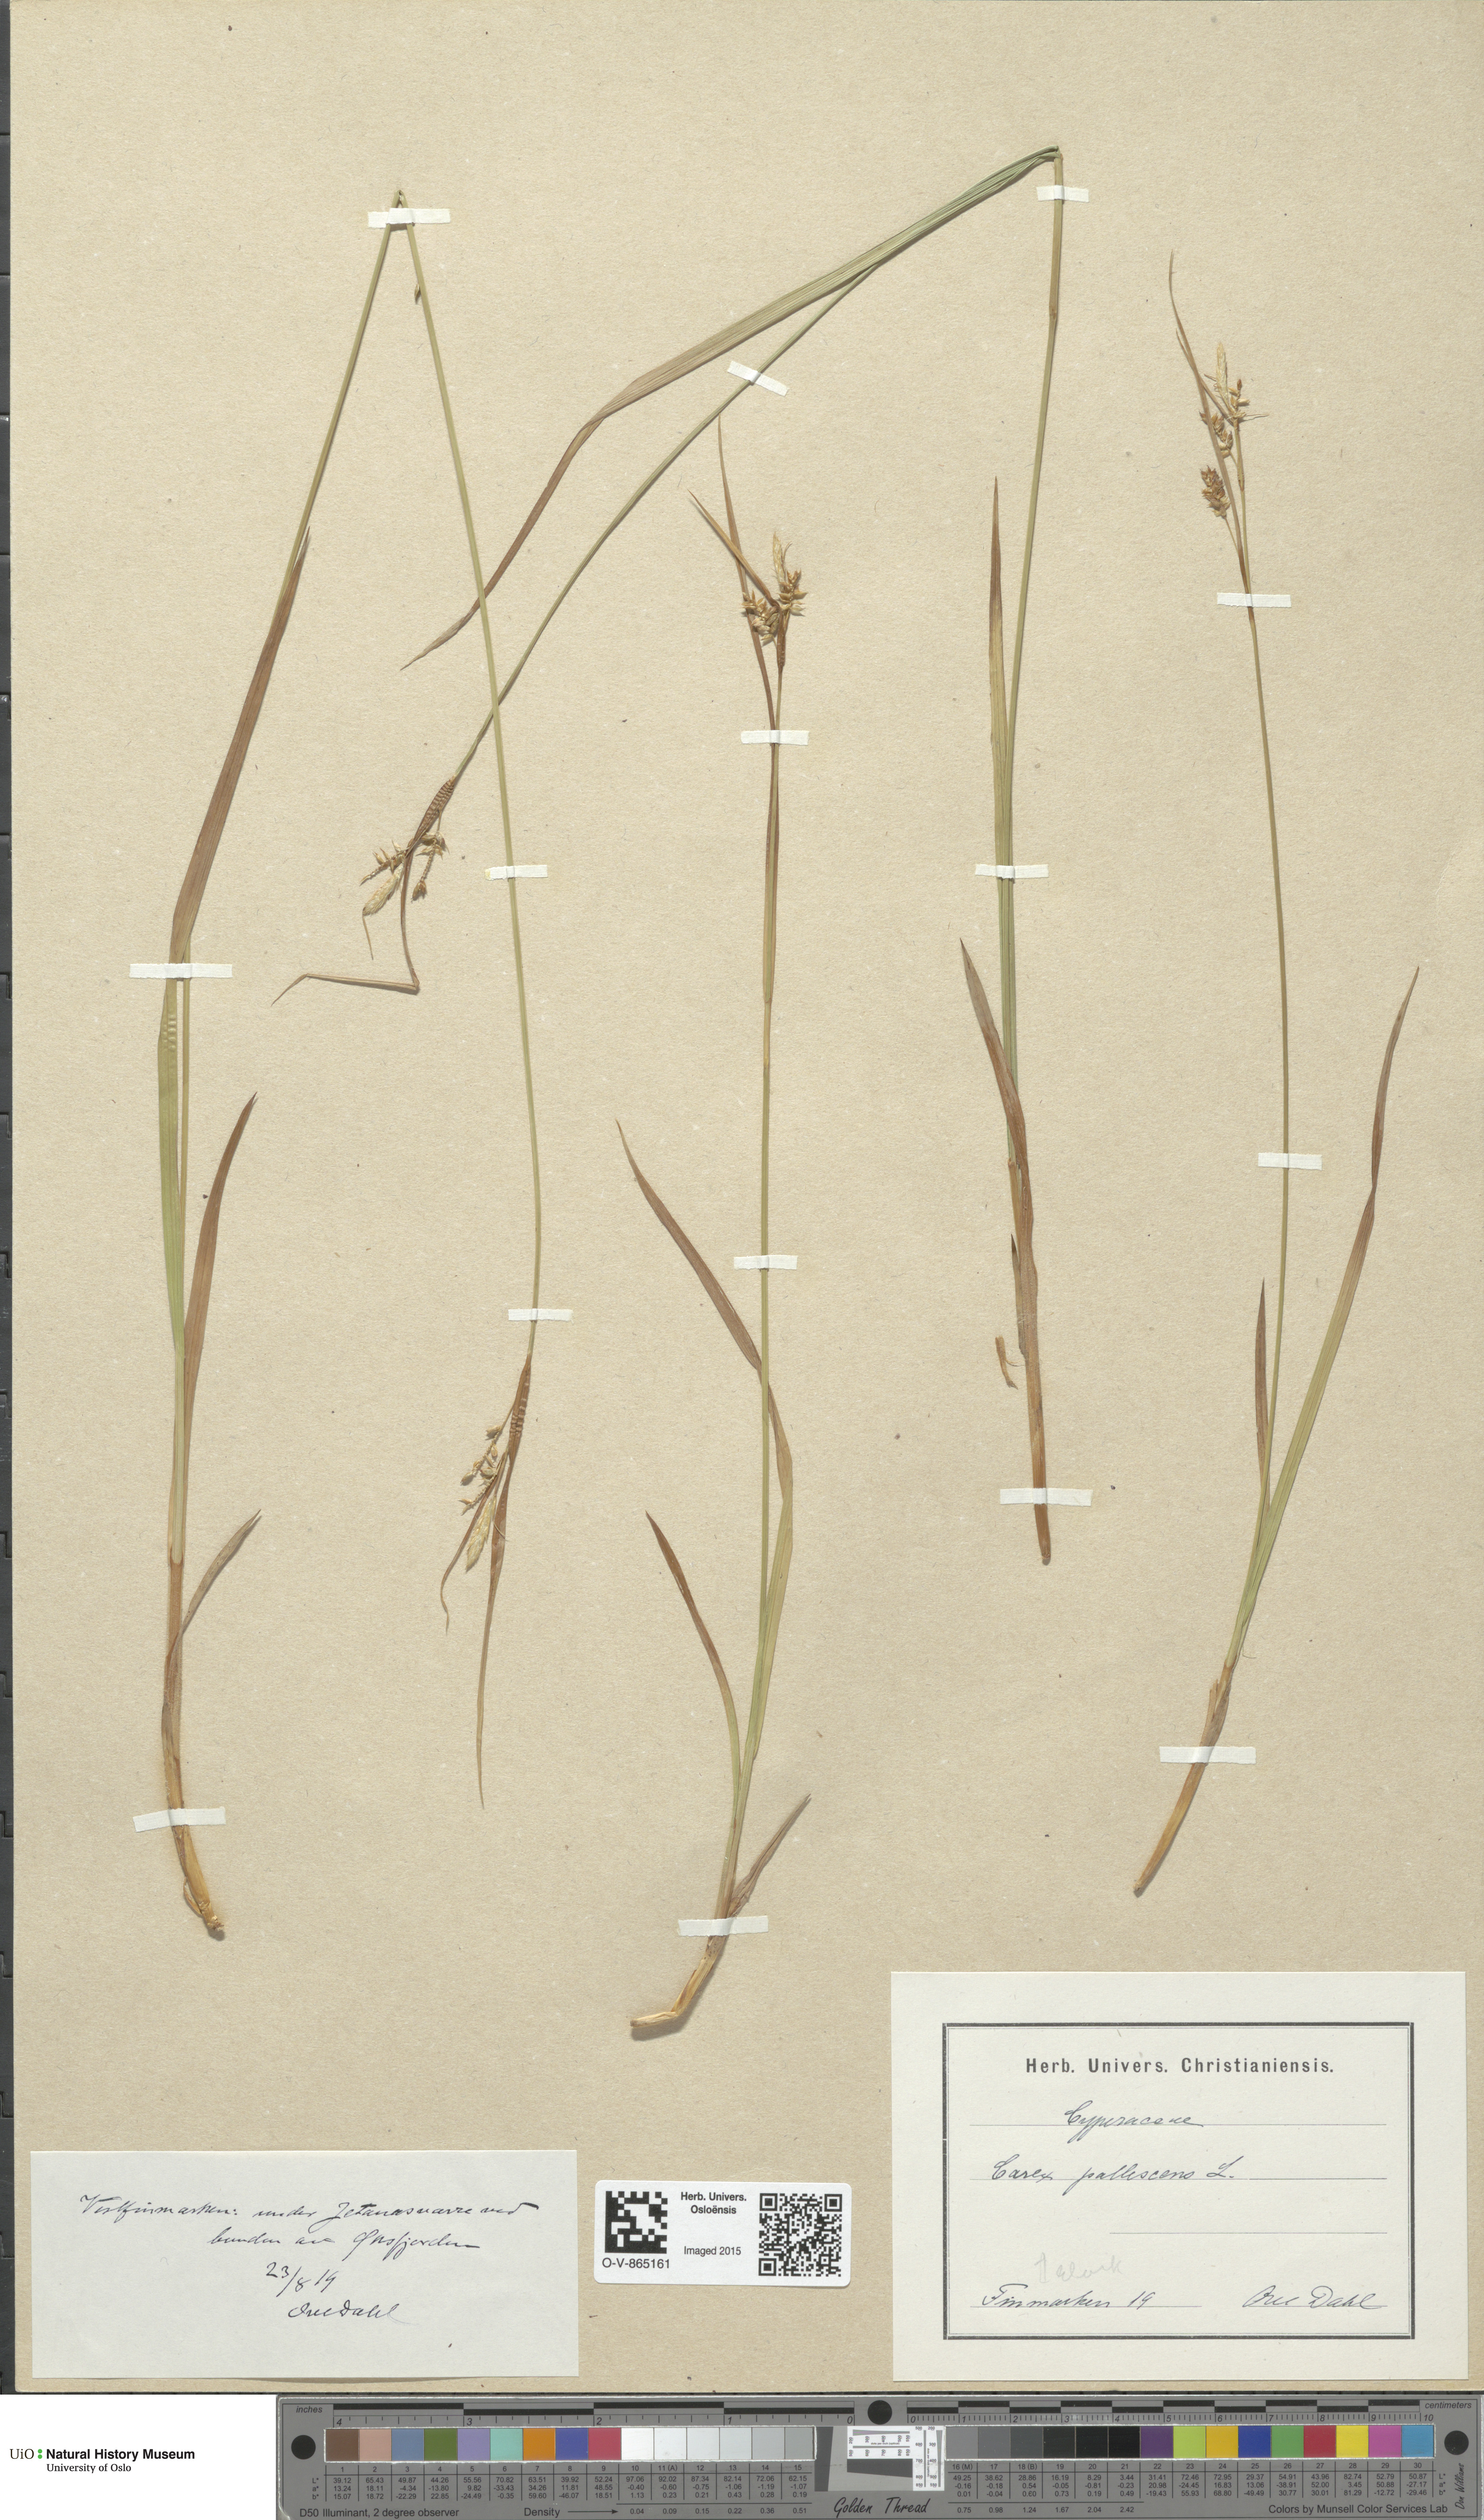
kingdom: Plantae
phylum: Tracheophyta
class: Liliopsida
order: Poales
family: Cyperaceae
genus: Carex
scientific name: Carex pallescens
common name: Pale sedge
